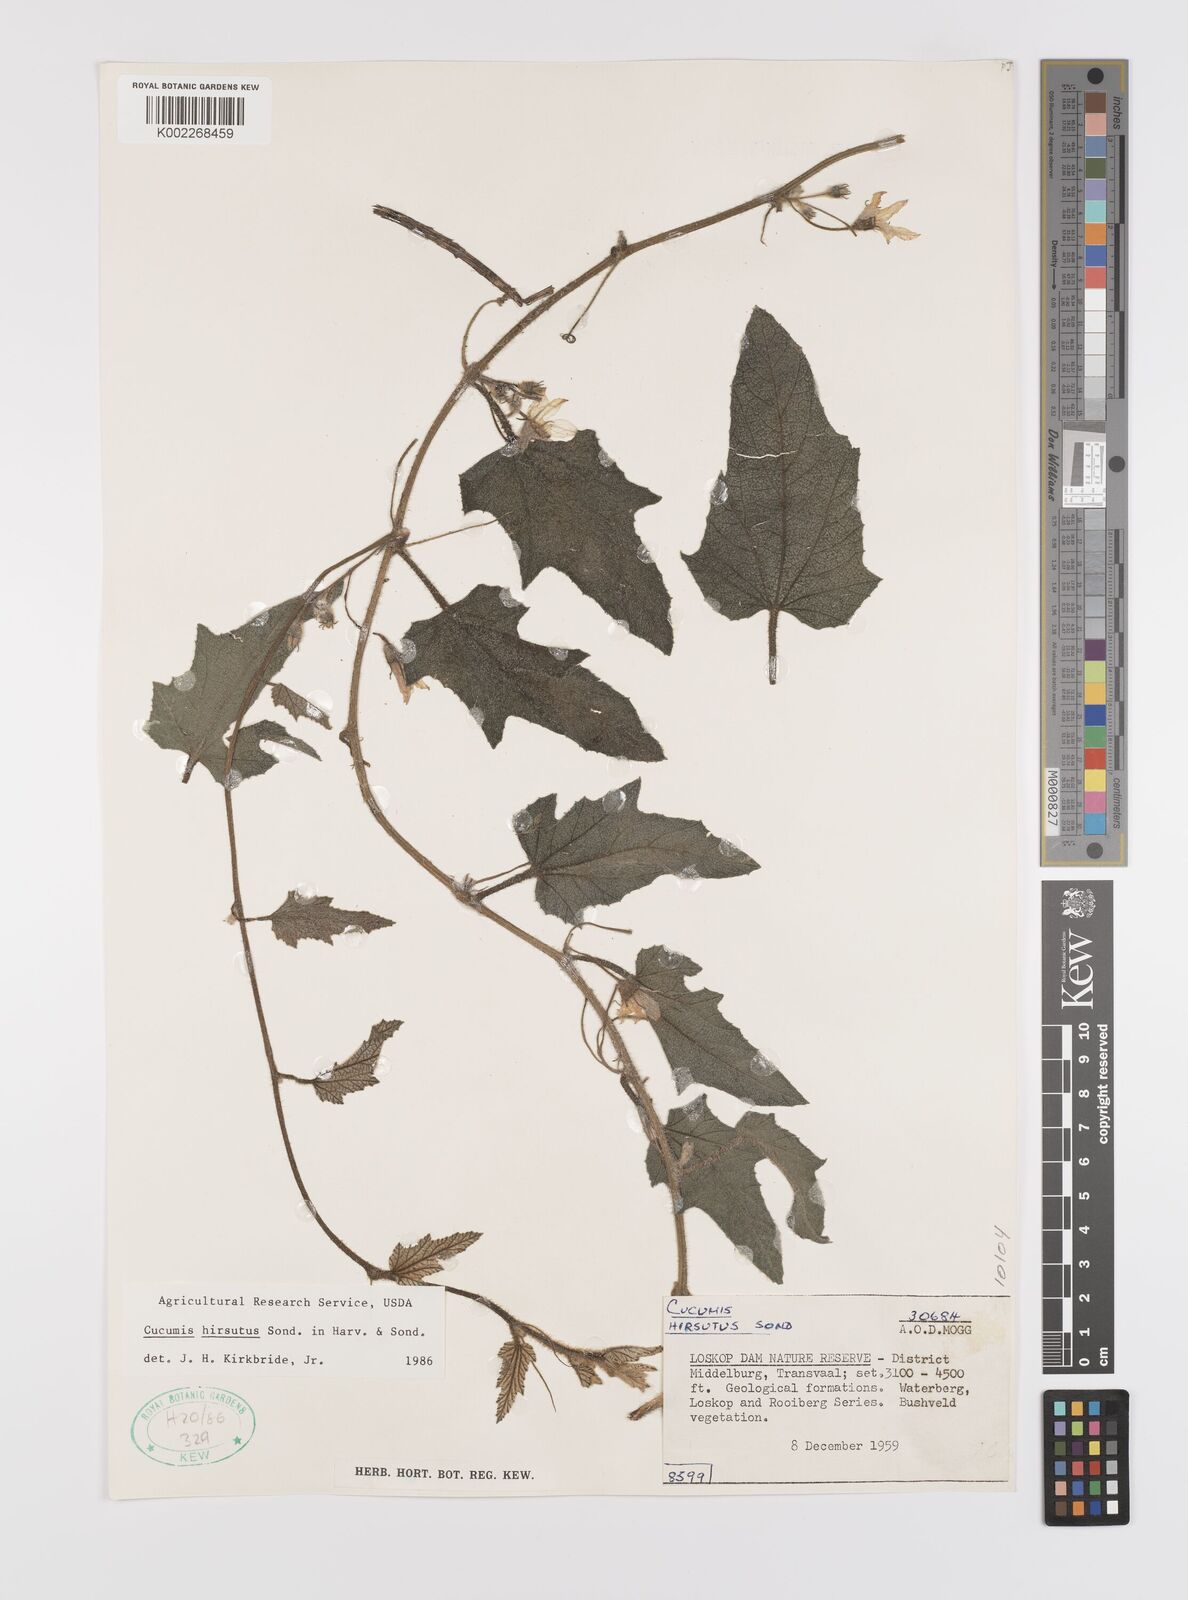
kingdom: Plantae
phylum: Tracheophyta
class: Magnoliopsida
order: Cucurbitales
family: Cucurbitaceae
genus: Cucumis
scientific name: Cucumis hirsutus
